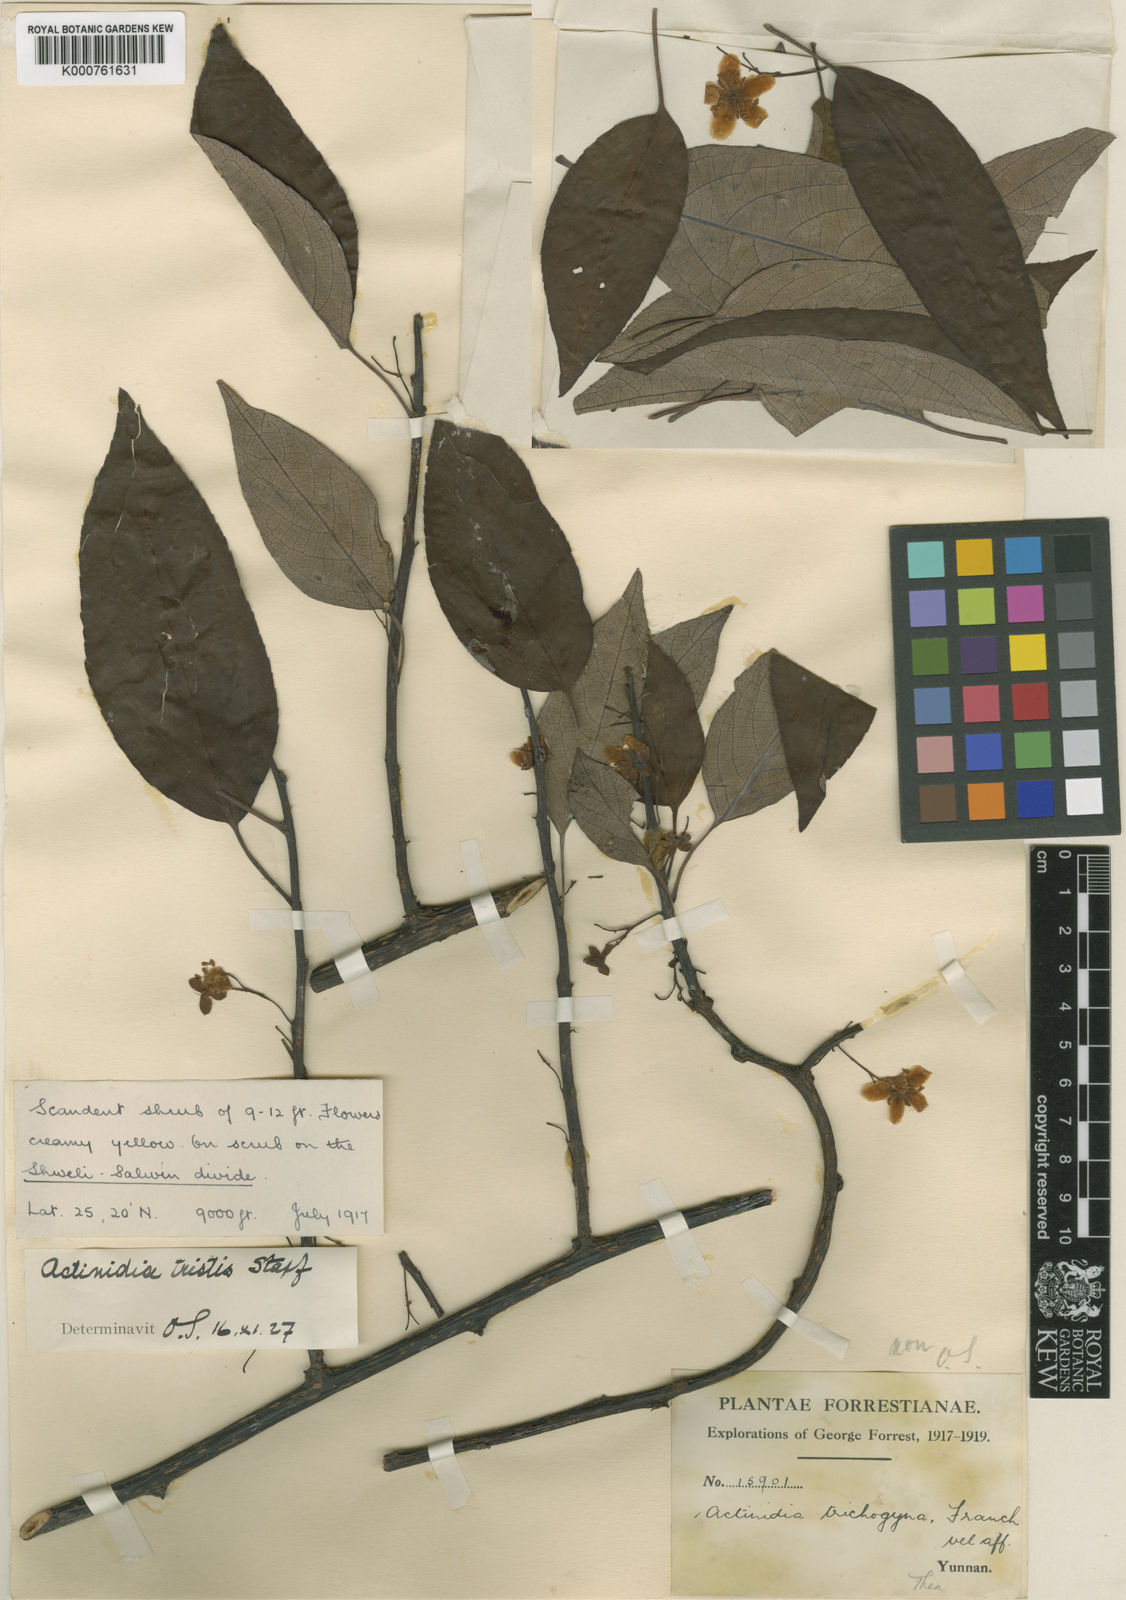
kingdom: Plantae
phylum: Tracheophyta
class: Magnoliopsida
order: Ericales
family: Actinidiaceae
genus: Actinidia
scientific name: Actinidia
